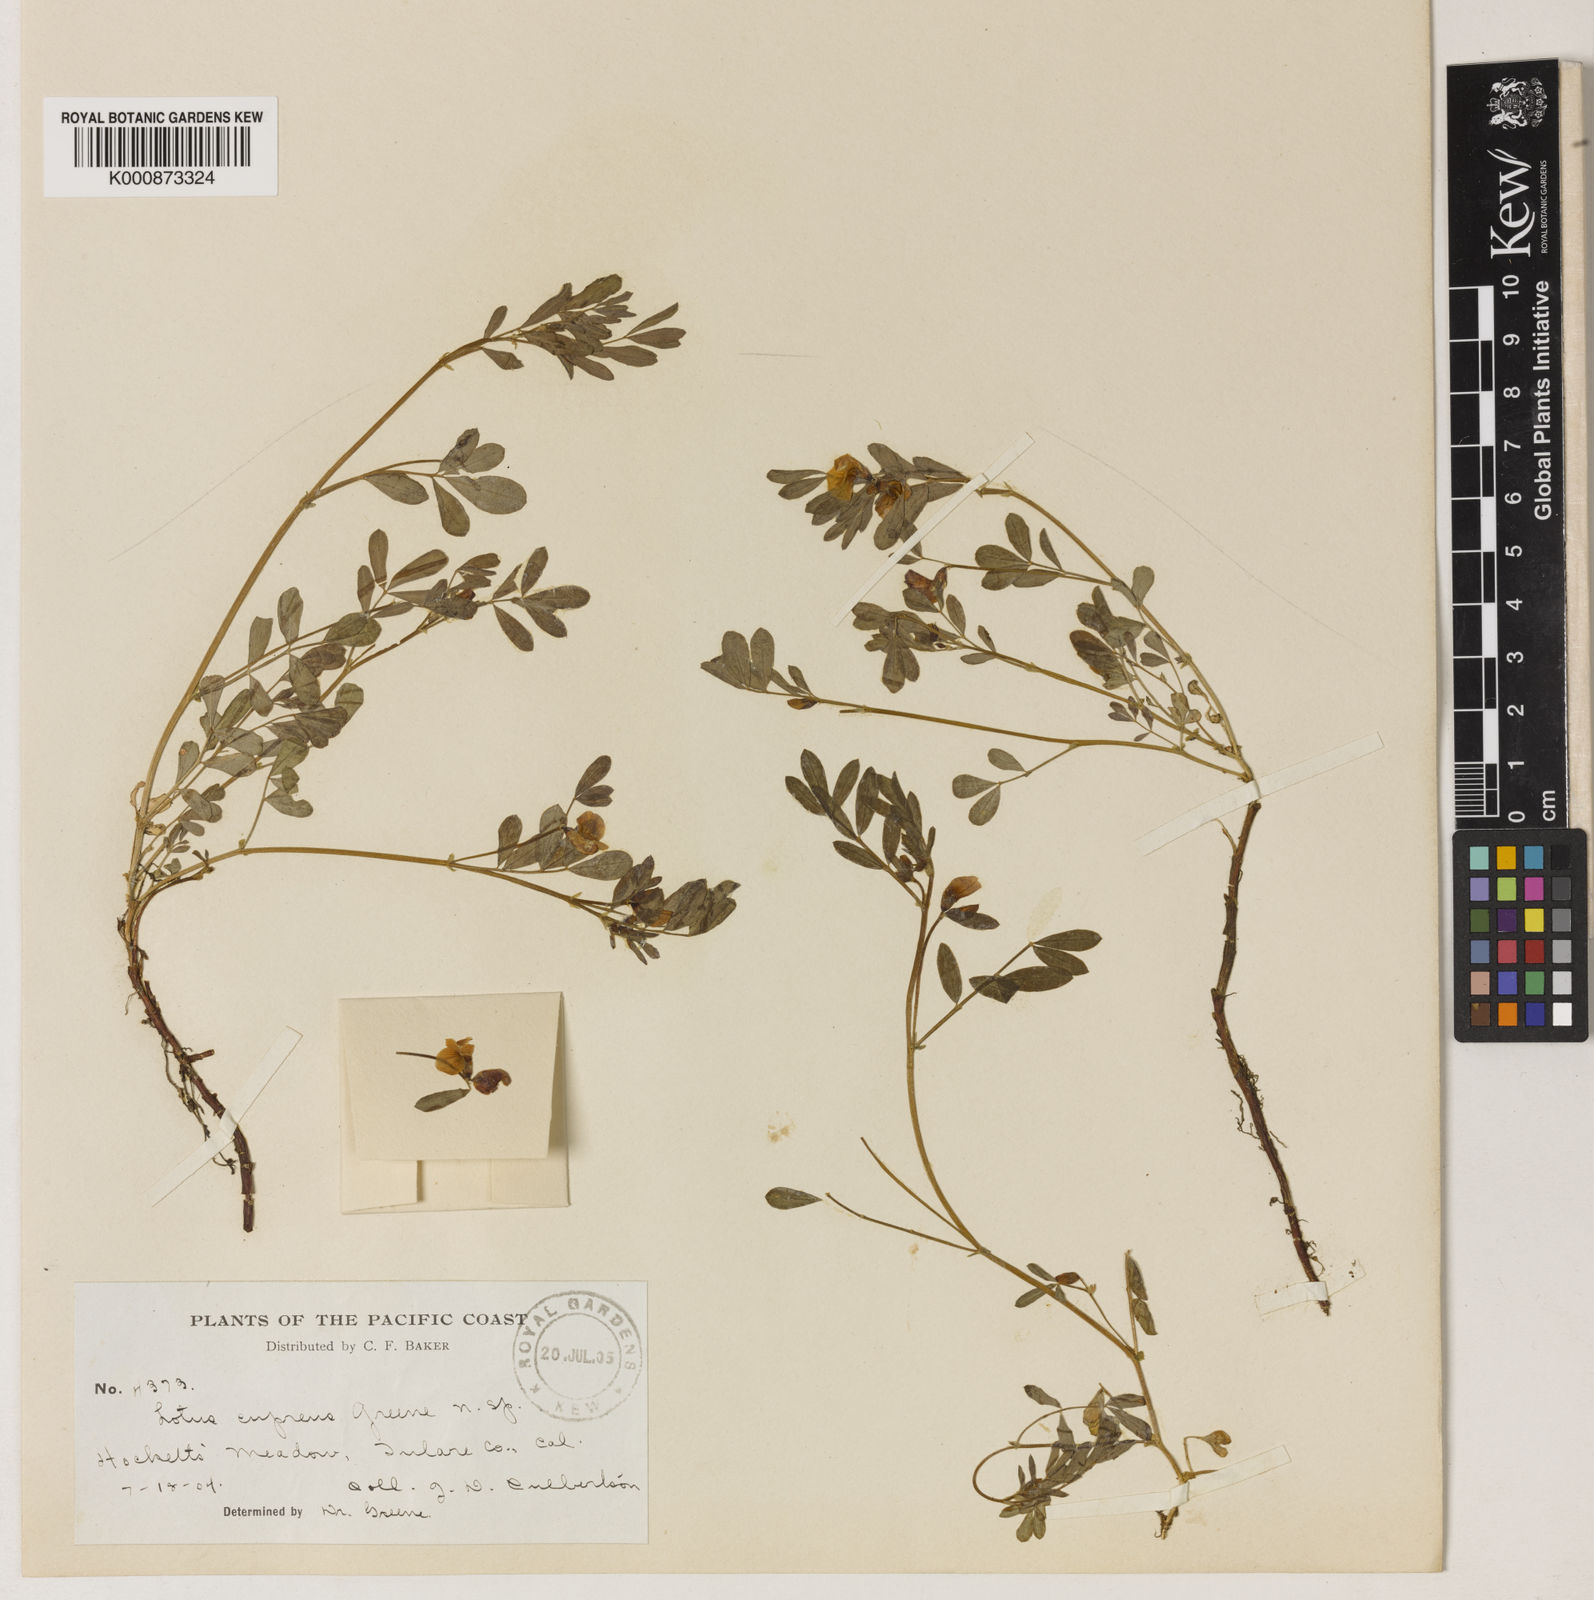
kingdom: Plantae
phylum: Tracheophyta
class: Magnoliopsida
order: Fabales
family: Fabaceae
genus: Hosackia
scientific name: Hosackia oblongifolia
